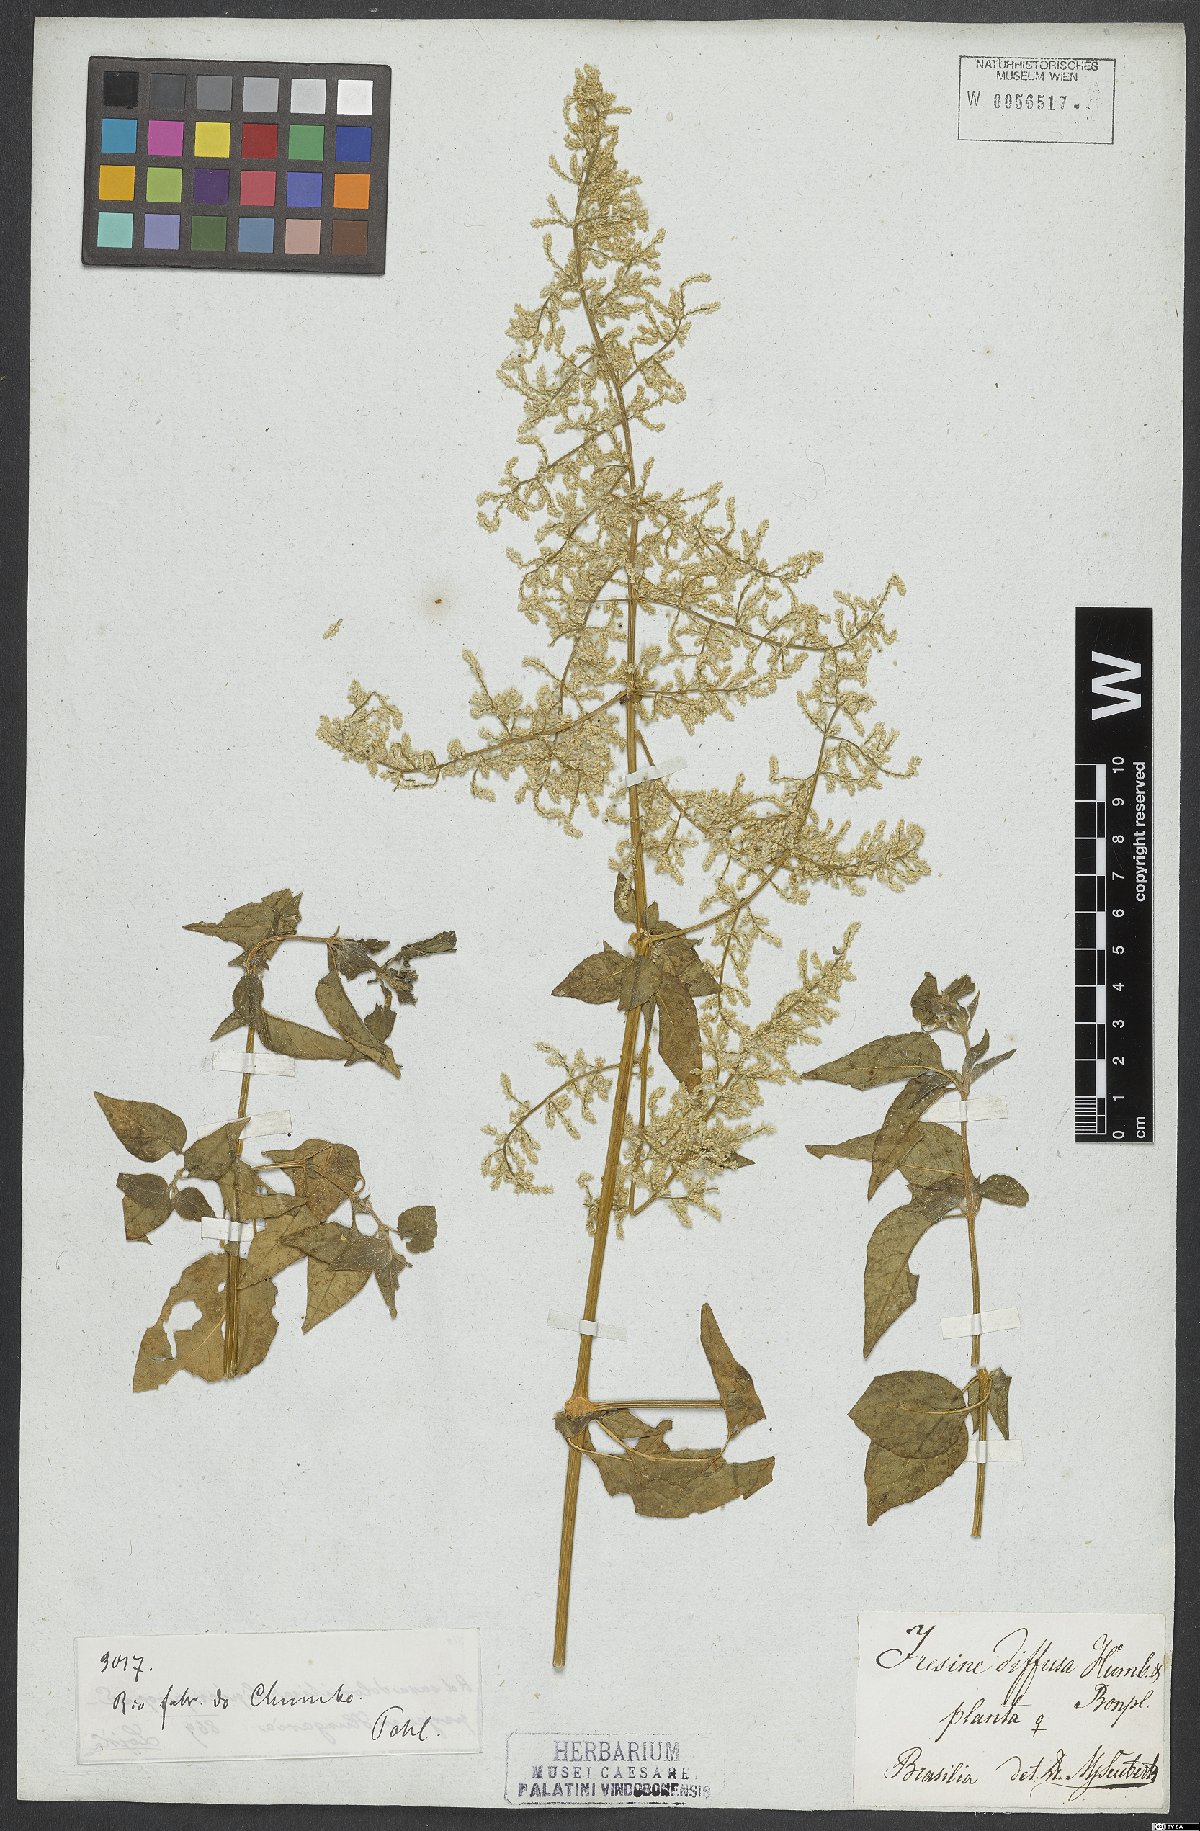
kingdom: Plantae
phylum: Tracheophyta
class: Magnoliopsida
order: Caryophyllales
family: Amaranthaceae
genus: Iresine
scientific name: Iresine diffusa
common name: Juba's-bush
